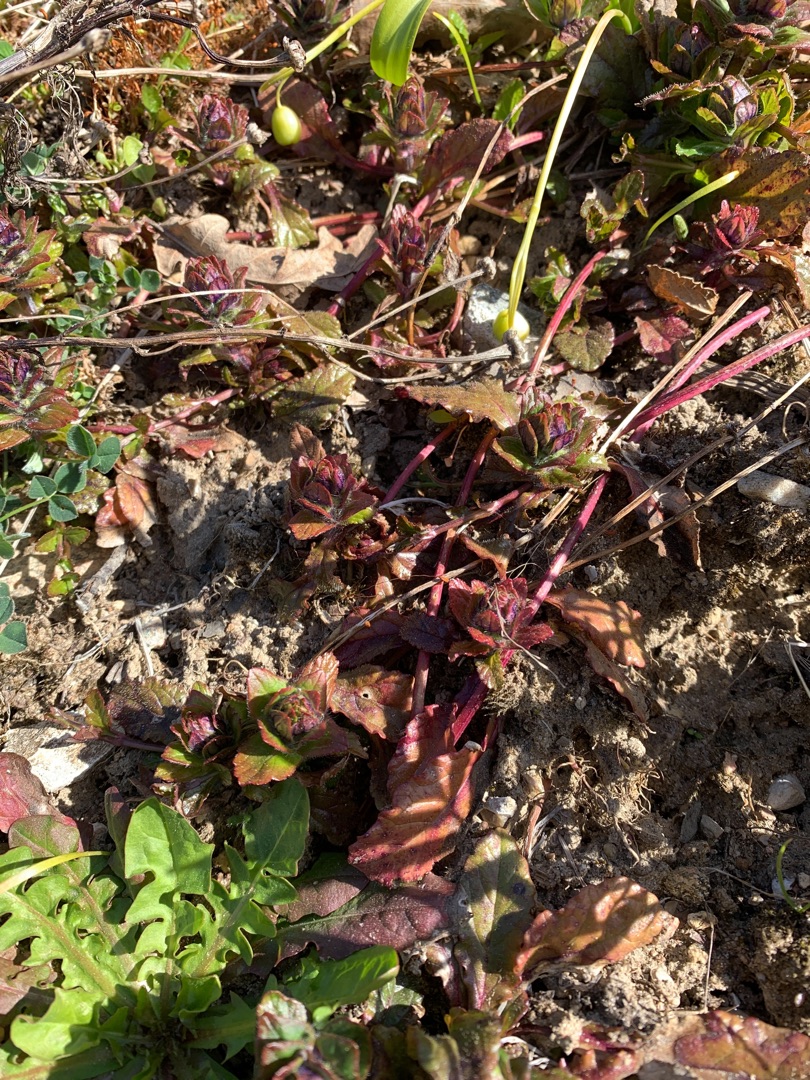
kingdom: Plantae
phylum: Tracheophyta
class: Magnoliopsida
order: Lamiales
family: Lamiaceae
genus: Ajuga
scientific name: Ajuga reptans
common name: Krybende læbeløs
